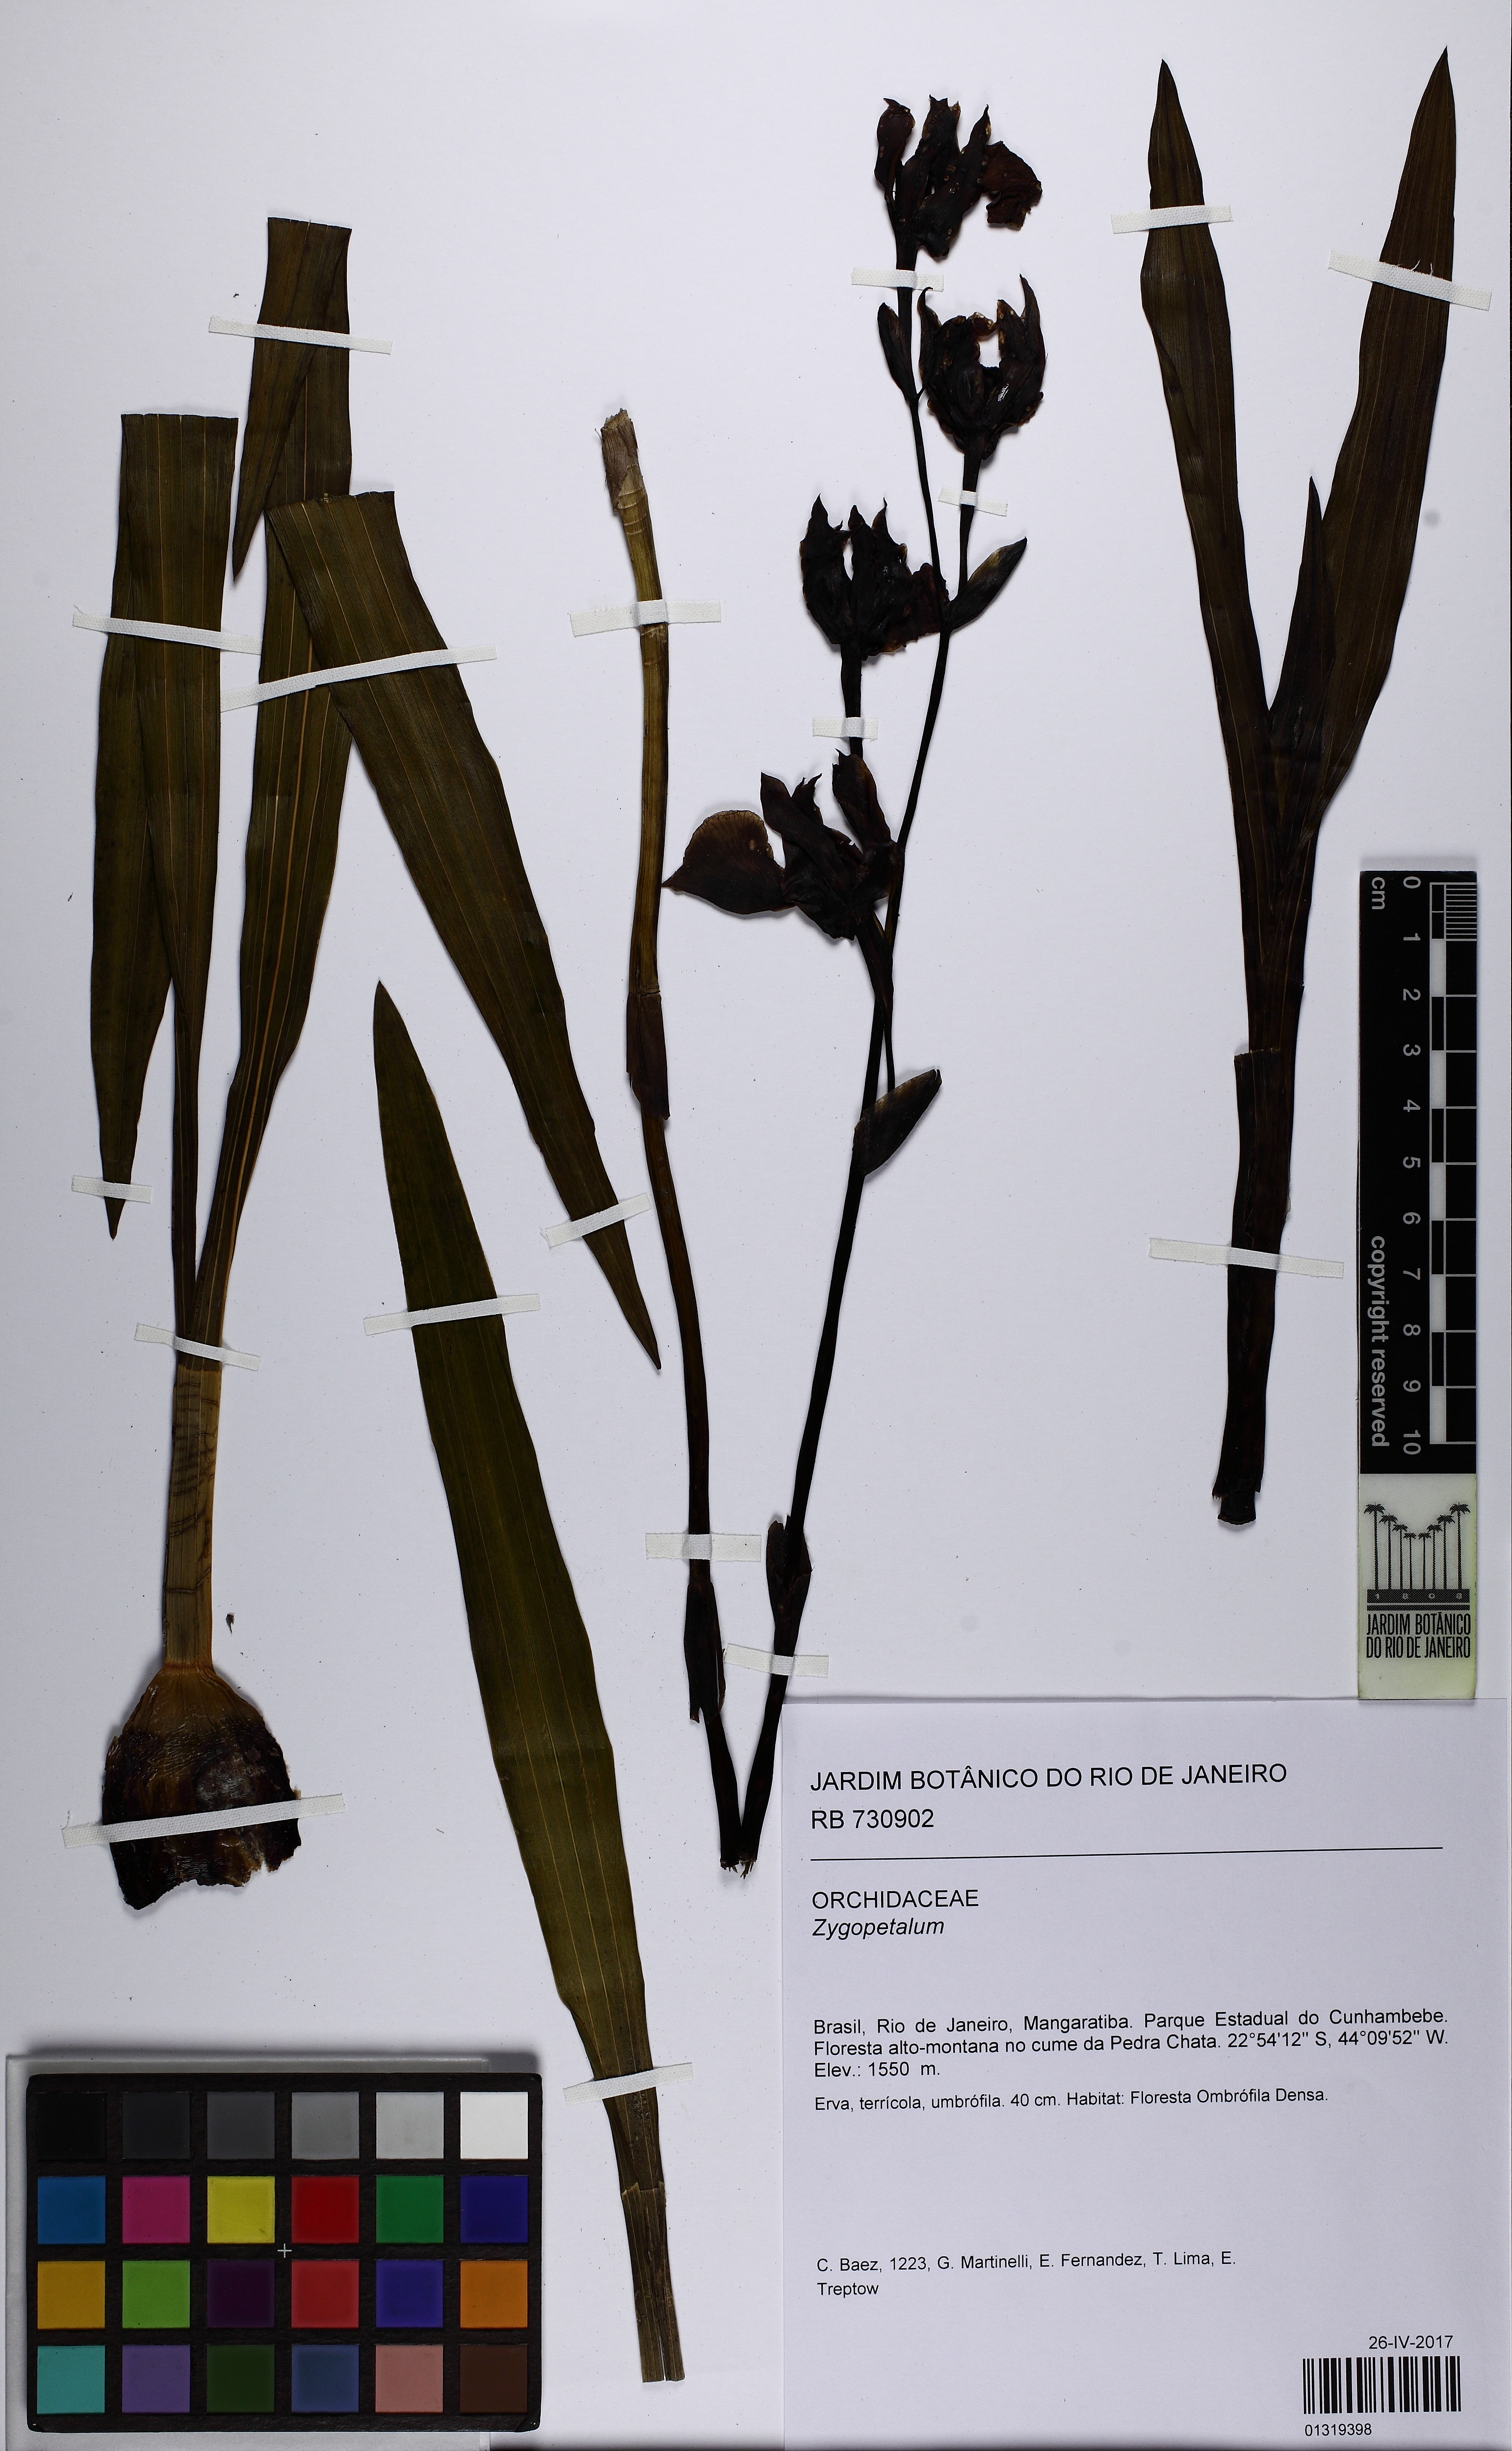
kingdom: Plantae
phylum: Tracheophyta
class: Liliopsida
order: Asparagales
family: Orchidaceae
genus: Zygopetalum
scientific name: Zygopetalum
